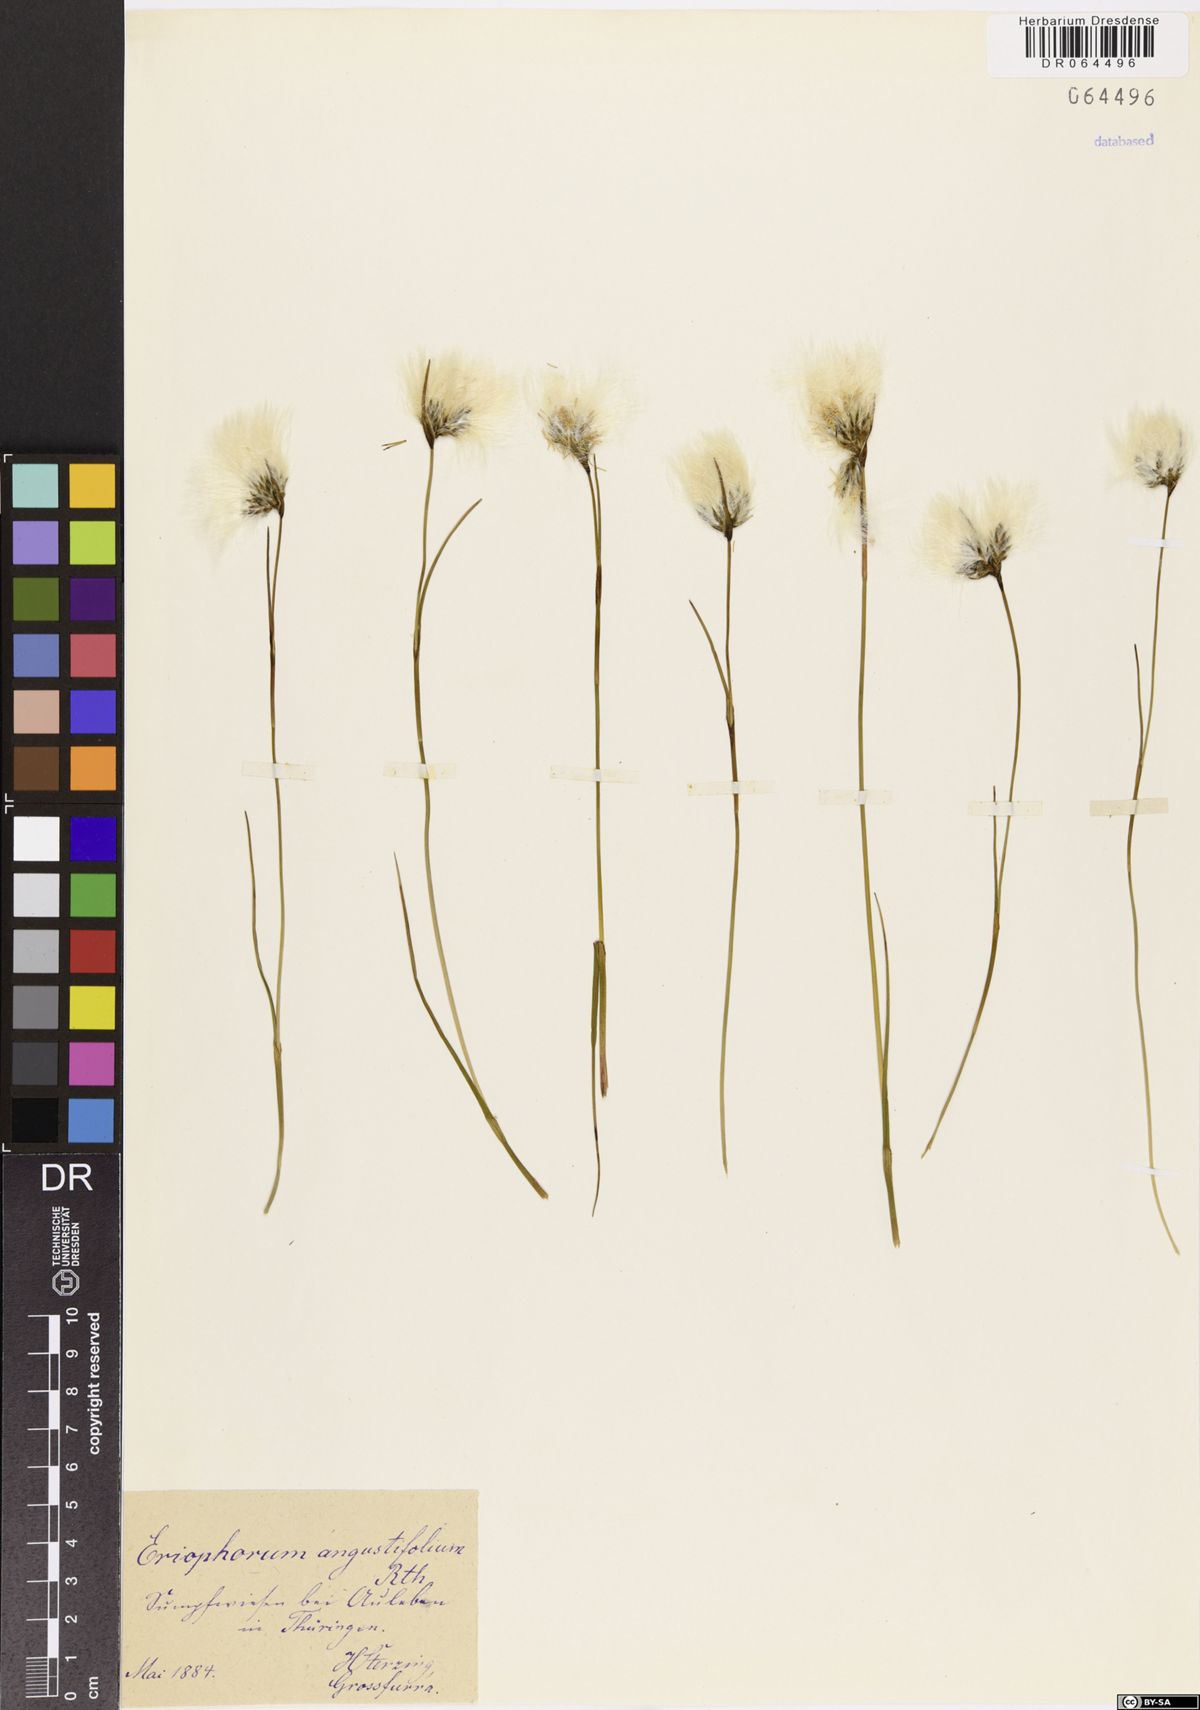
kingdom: Plantae
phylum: Tracheophyta
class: Liliopsida
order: Poales
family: Cyperaceae
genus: Eriophorum
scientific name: Eriophorum angustifolium
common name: Common cottongrass
